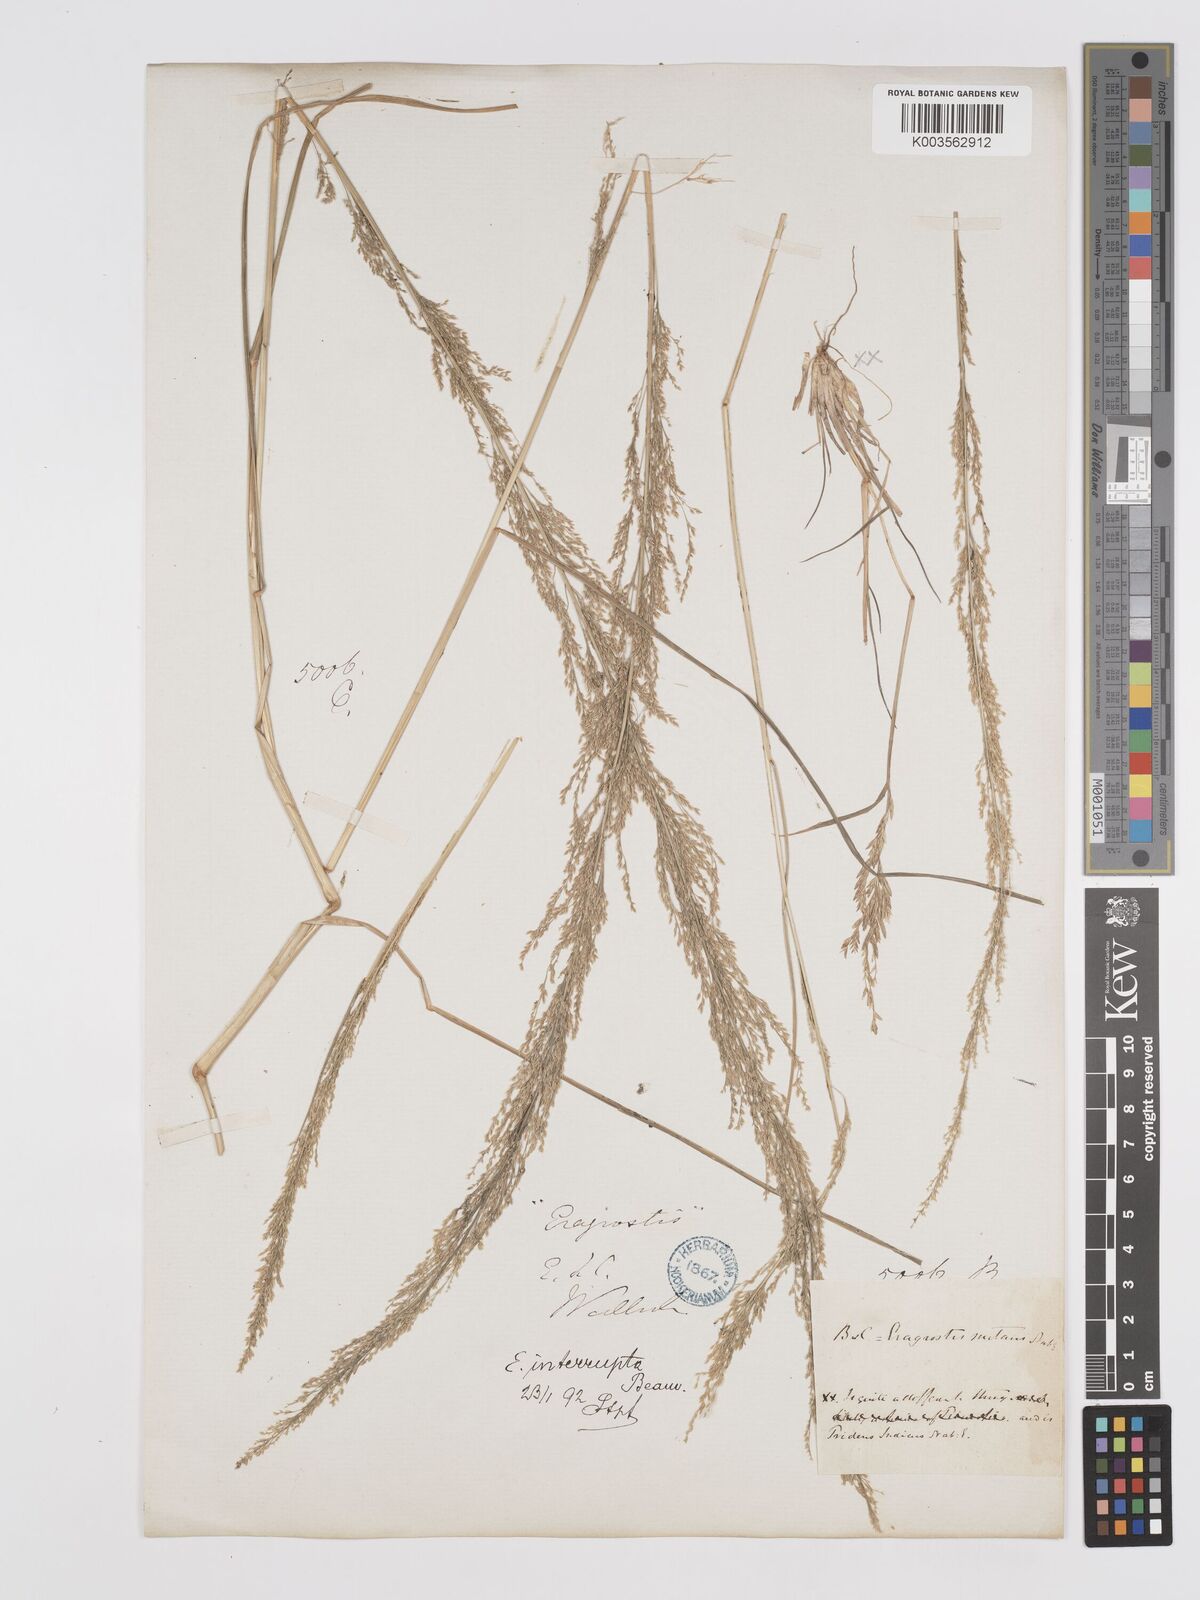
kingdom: Plantae
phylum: Tracheophyta
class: Liliopsida
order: Poales
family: Poaceae
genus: Eragrostis
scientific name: Eragrostis japonica
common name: Pond lovegrass
